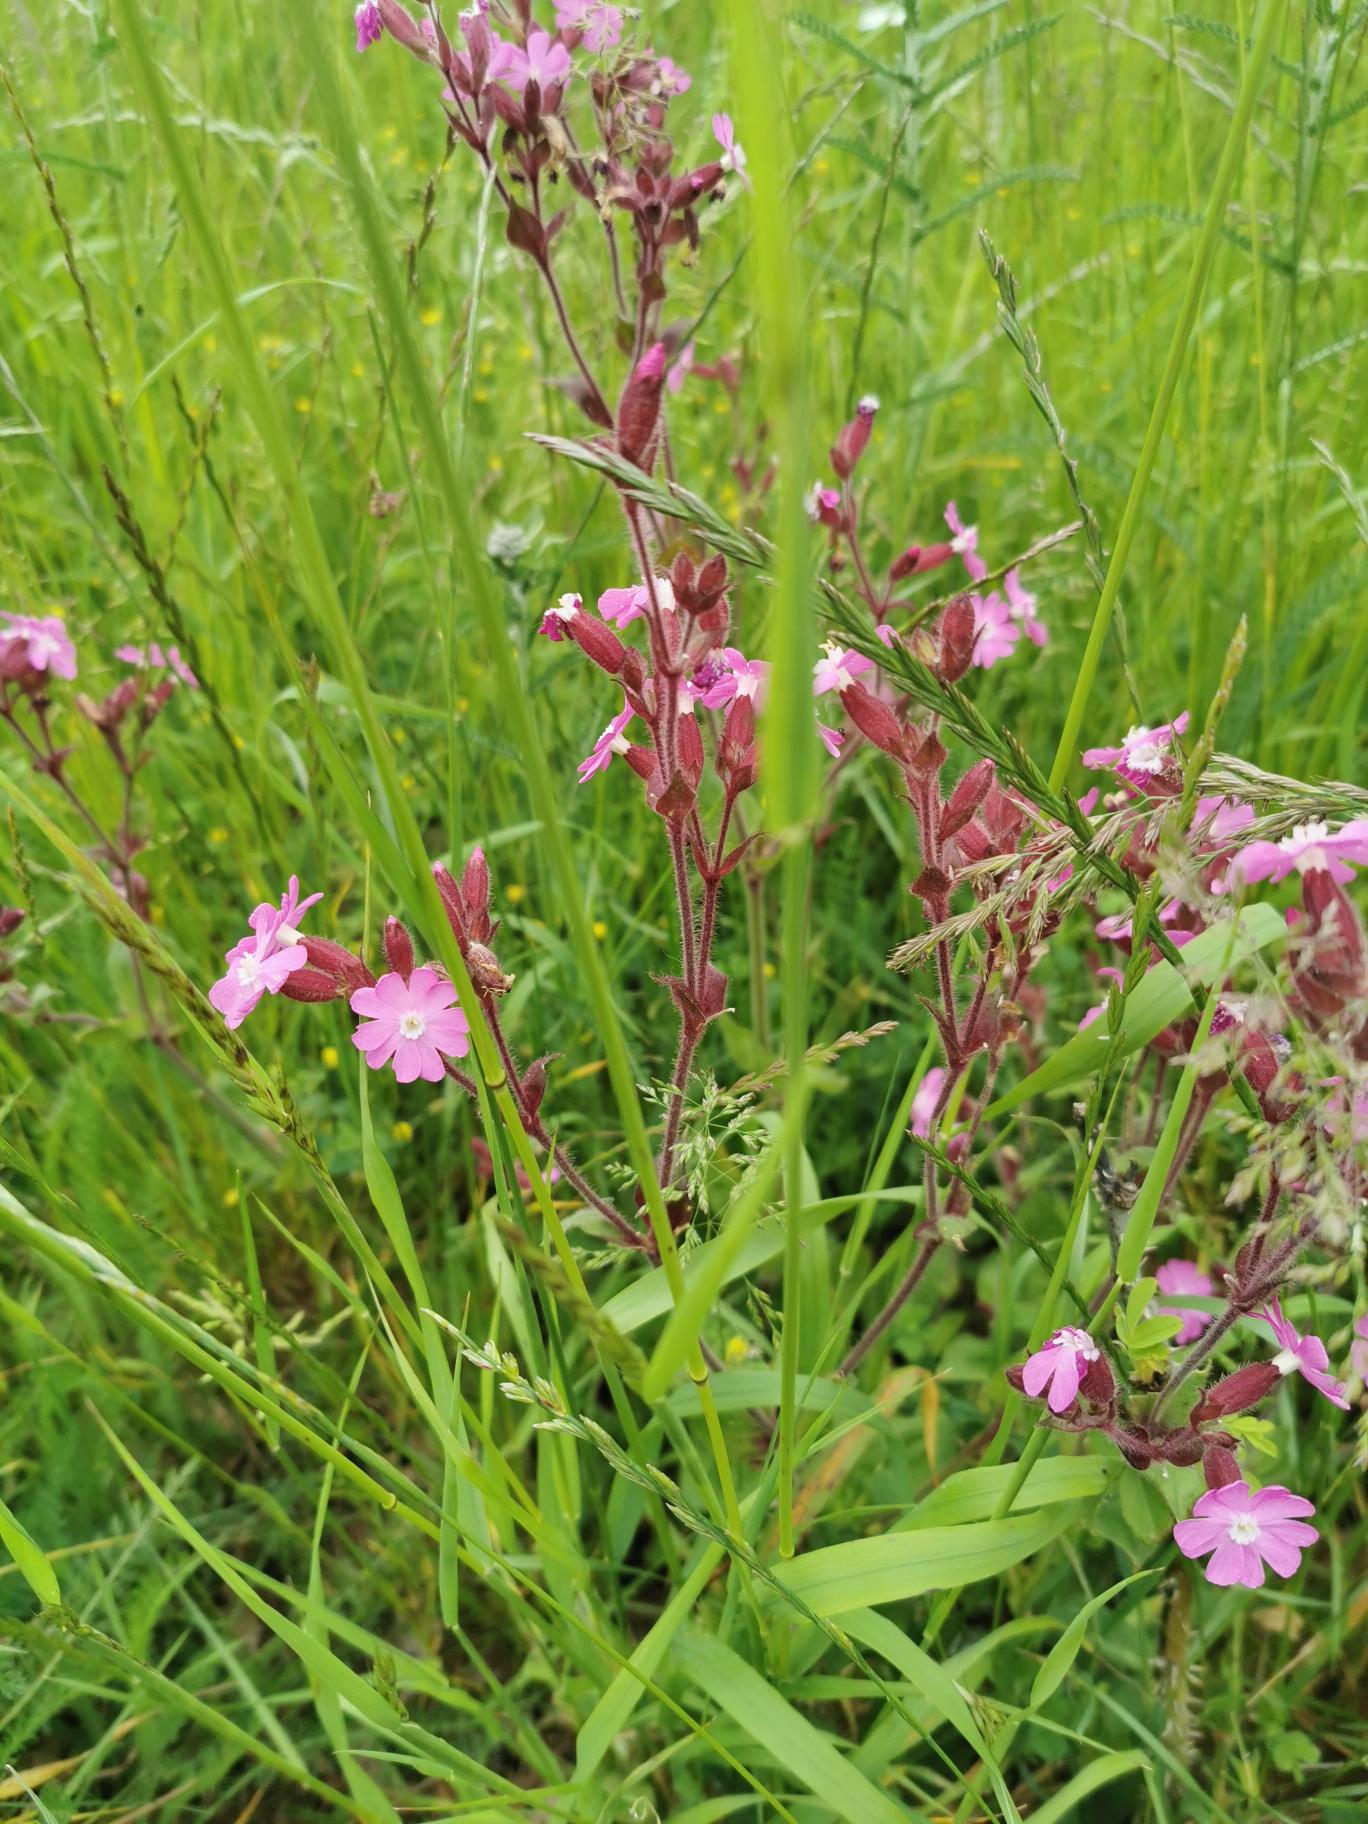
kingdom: Plantae
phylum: Tracheophyta
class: Magnoliopsida
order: Caryophyllales
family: Caryophyllaceae
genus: Silene
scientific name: Silene dioica
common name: Dagpragtstjerne
